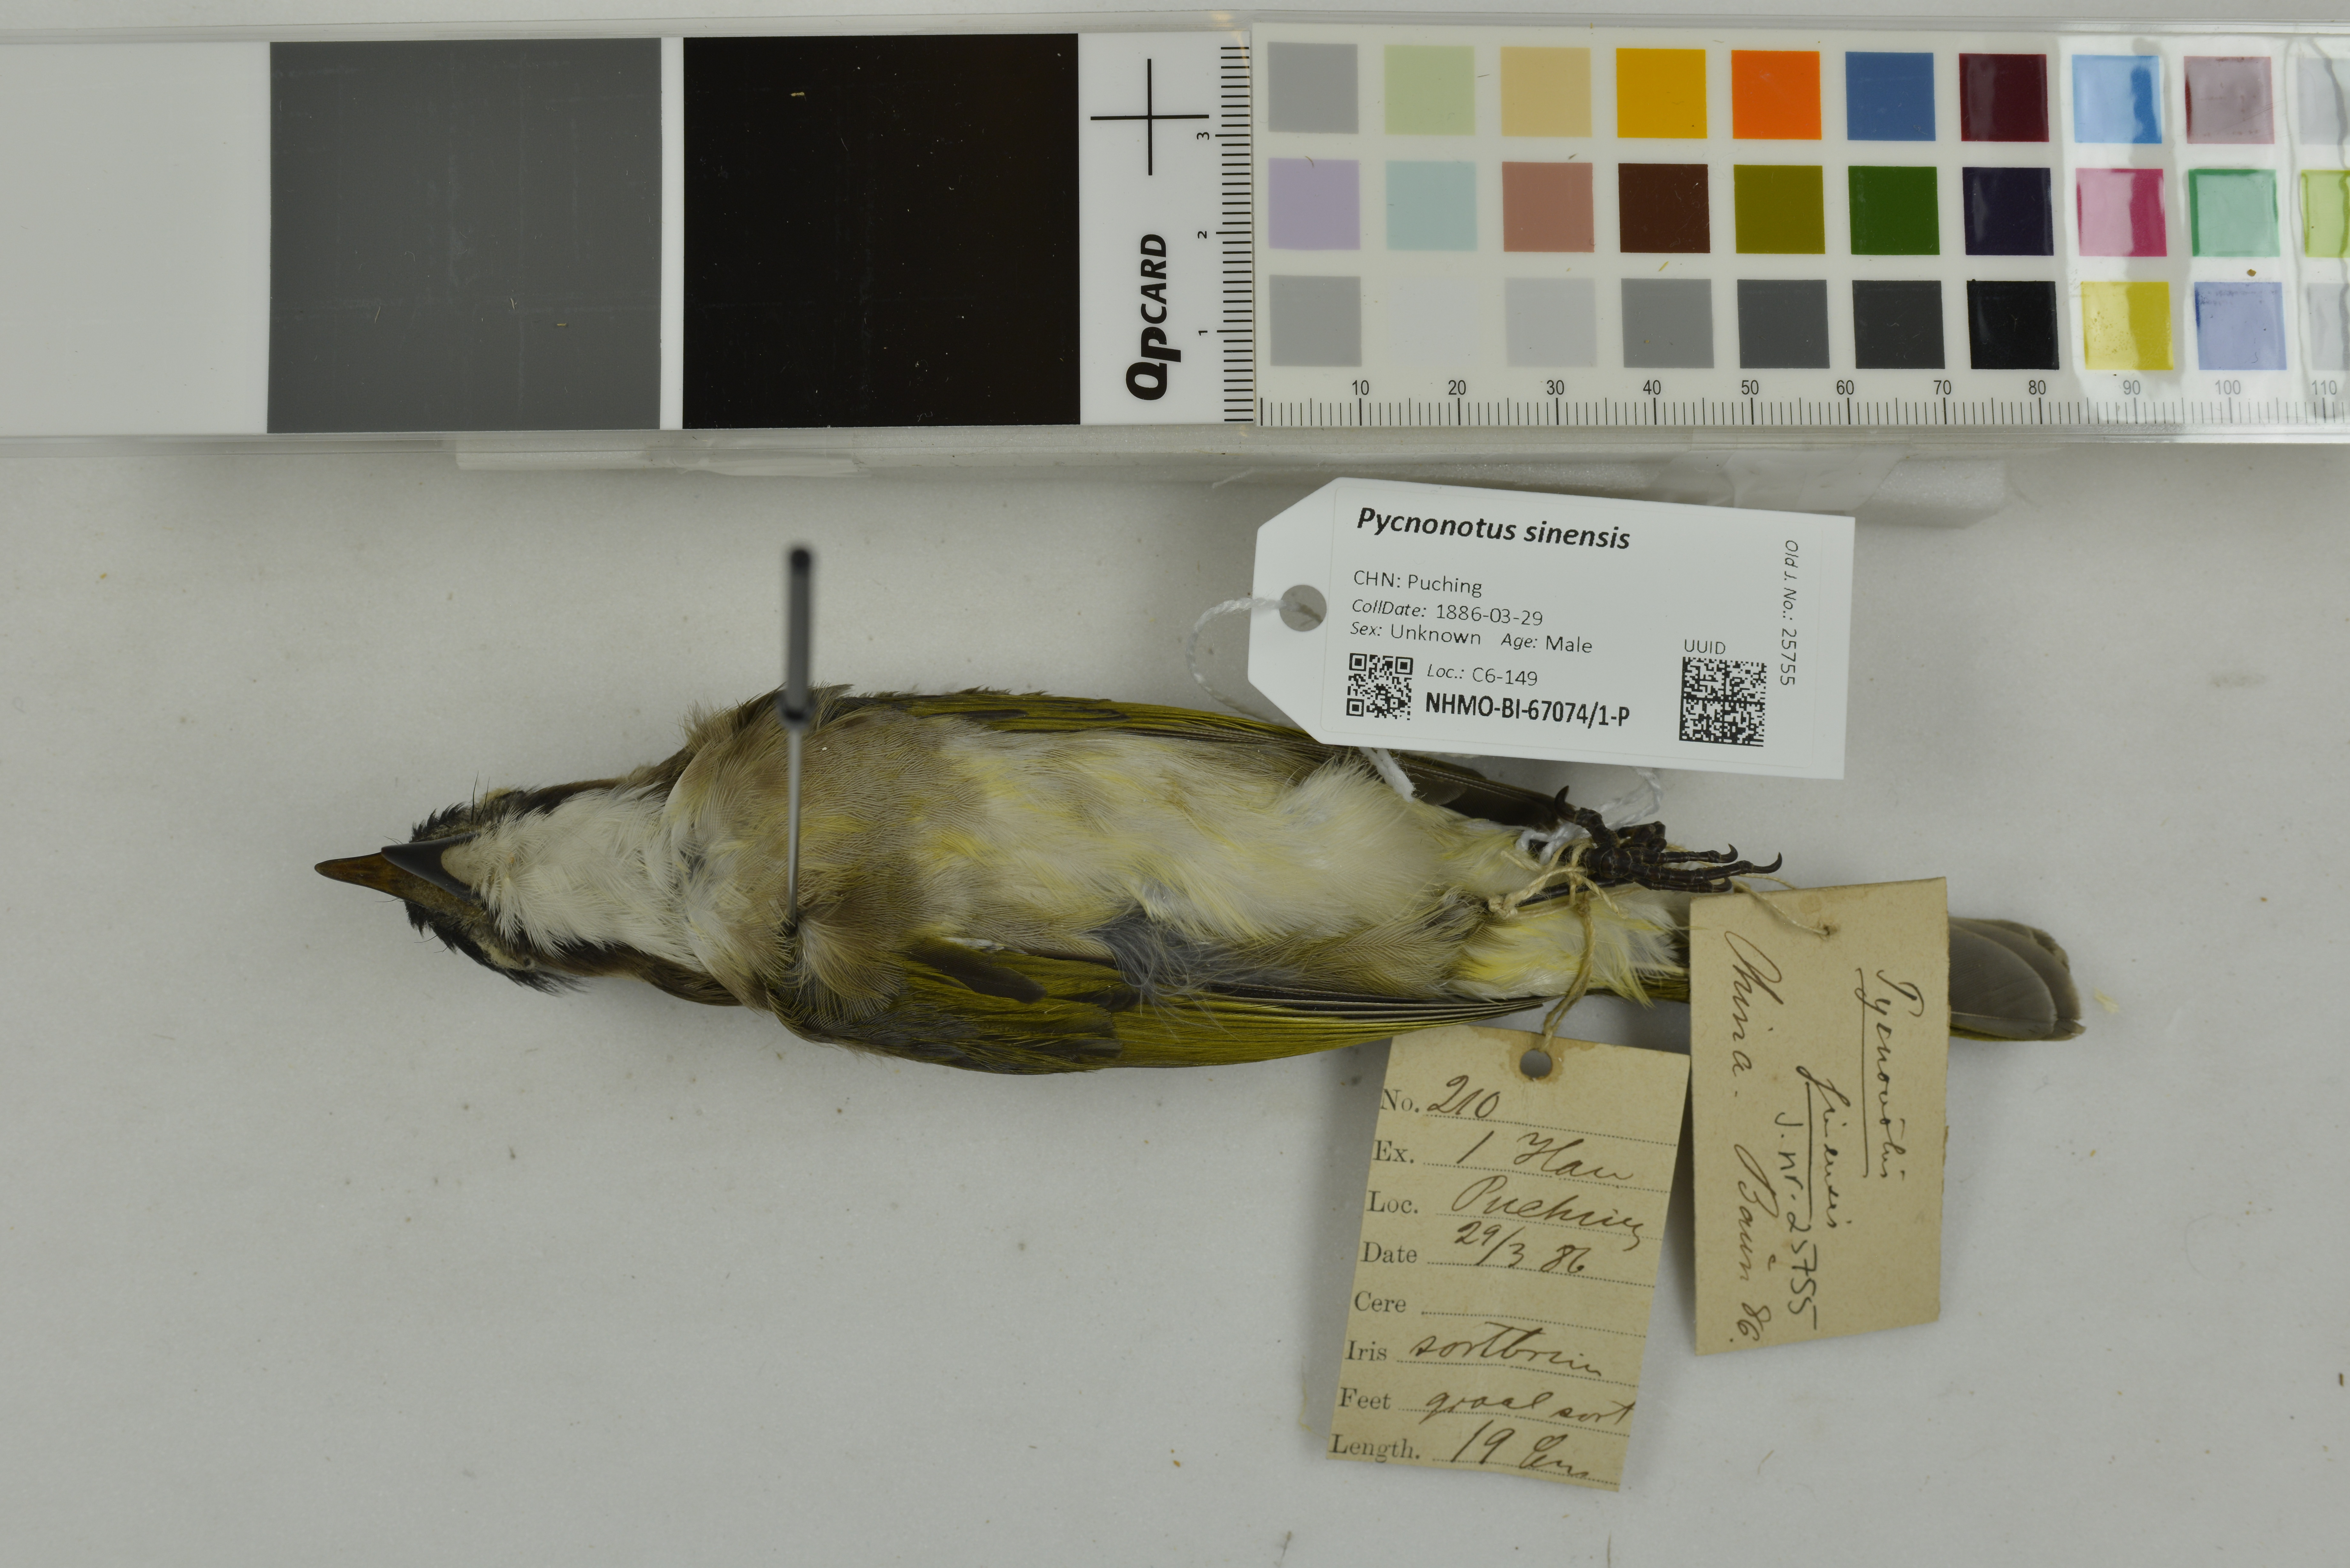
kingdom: Animalia
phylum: Chordata
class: Aves
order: Passeriformes
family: Pycnonotidae
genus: Pycnonotus
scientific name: Pycnonotus sinensis
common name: Light-vented bulbul
